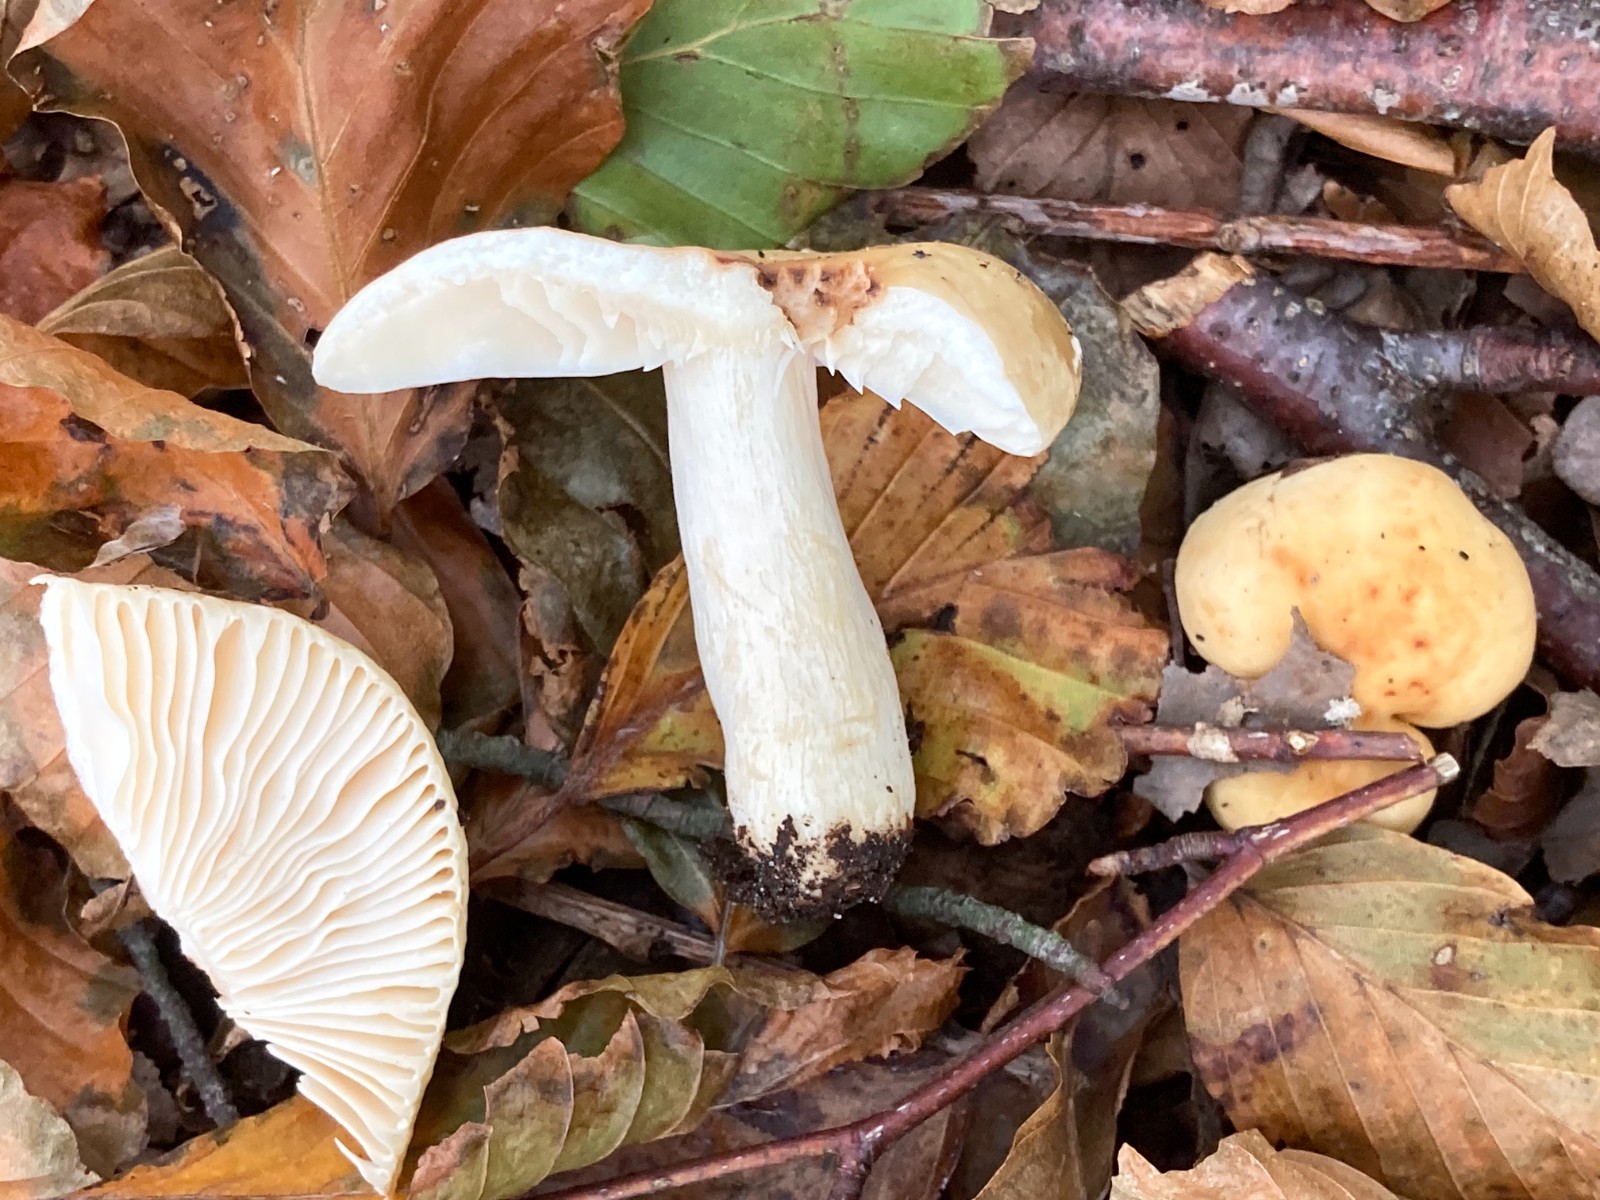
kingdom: Fungi
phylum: Basidiomycota
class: Agaricomycetes
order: Russulales
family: Russulaceae
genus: Russula
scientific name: Russula fellea
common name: galde-skørhat
